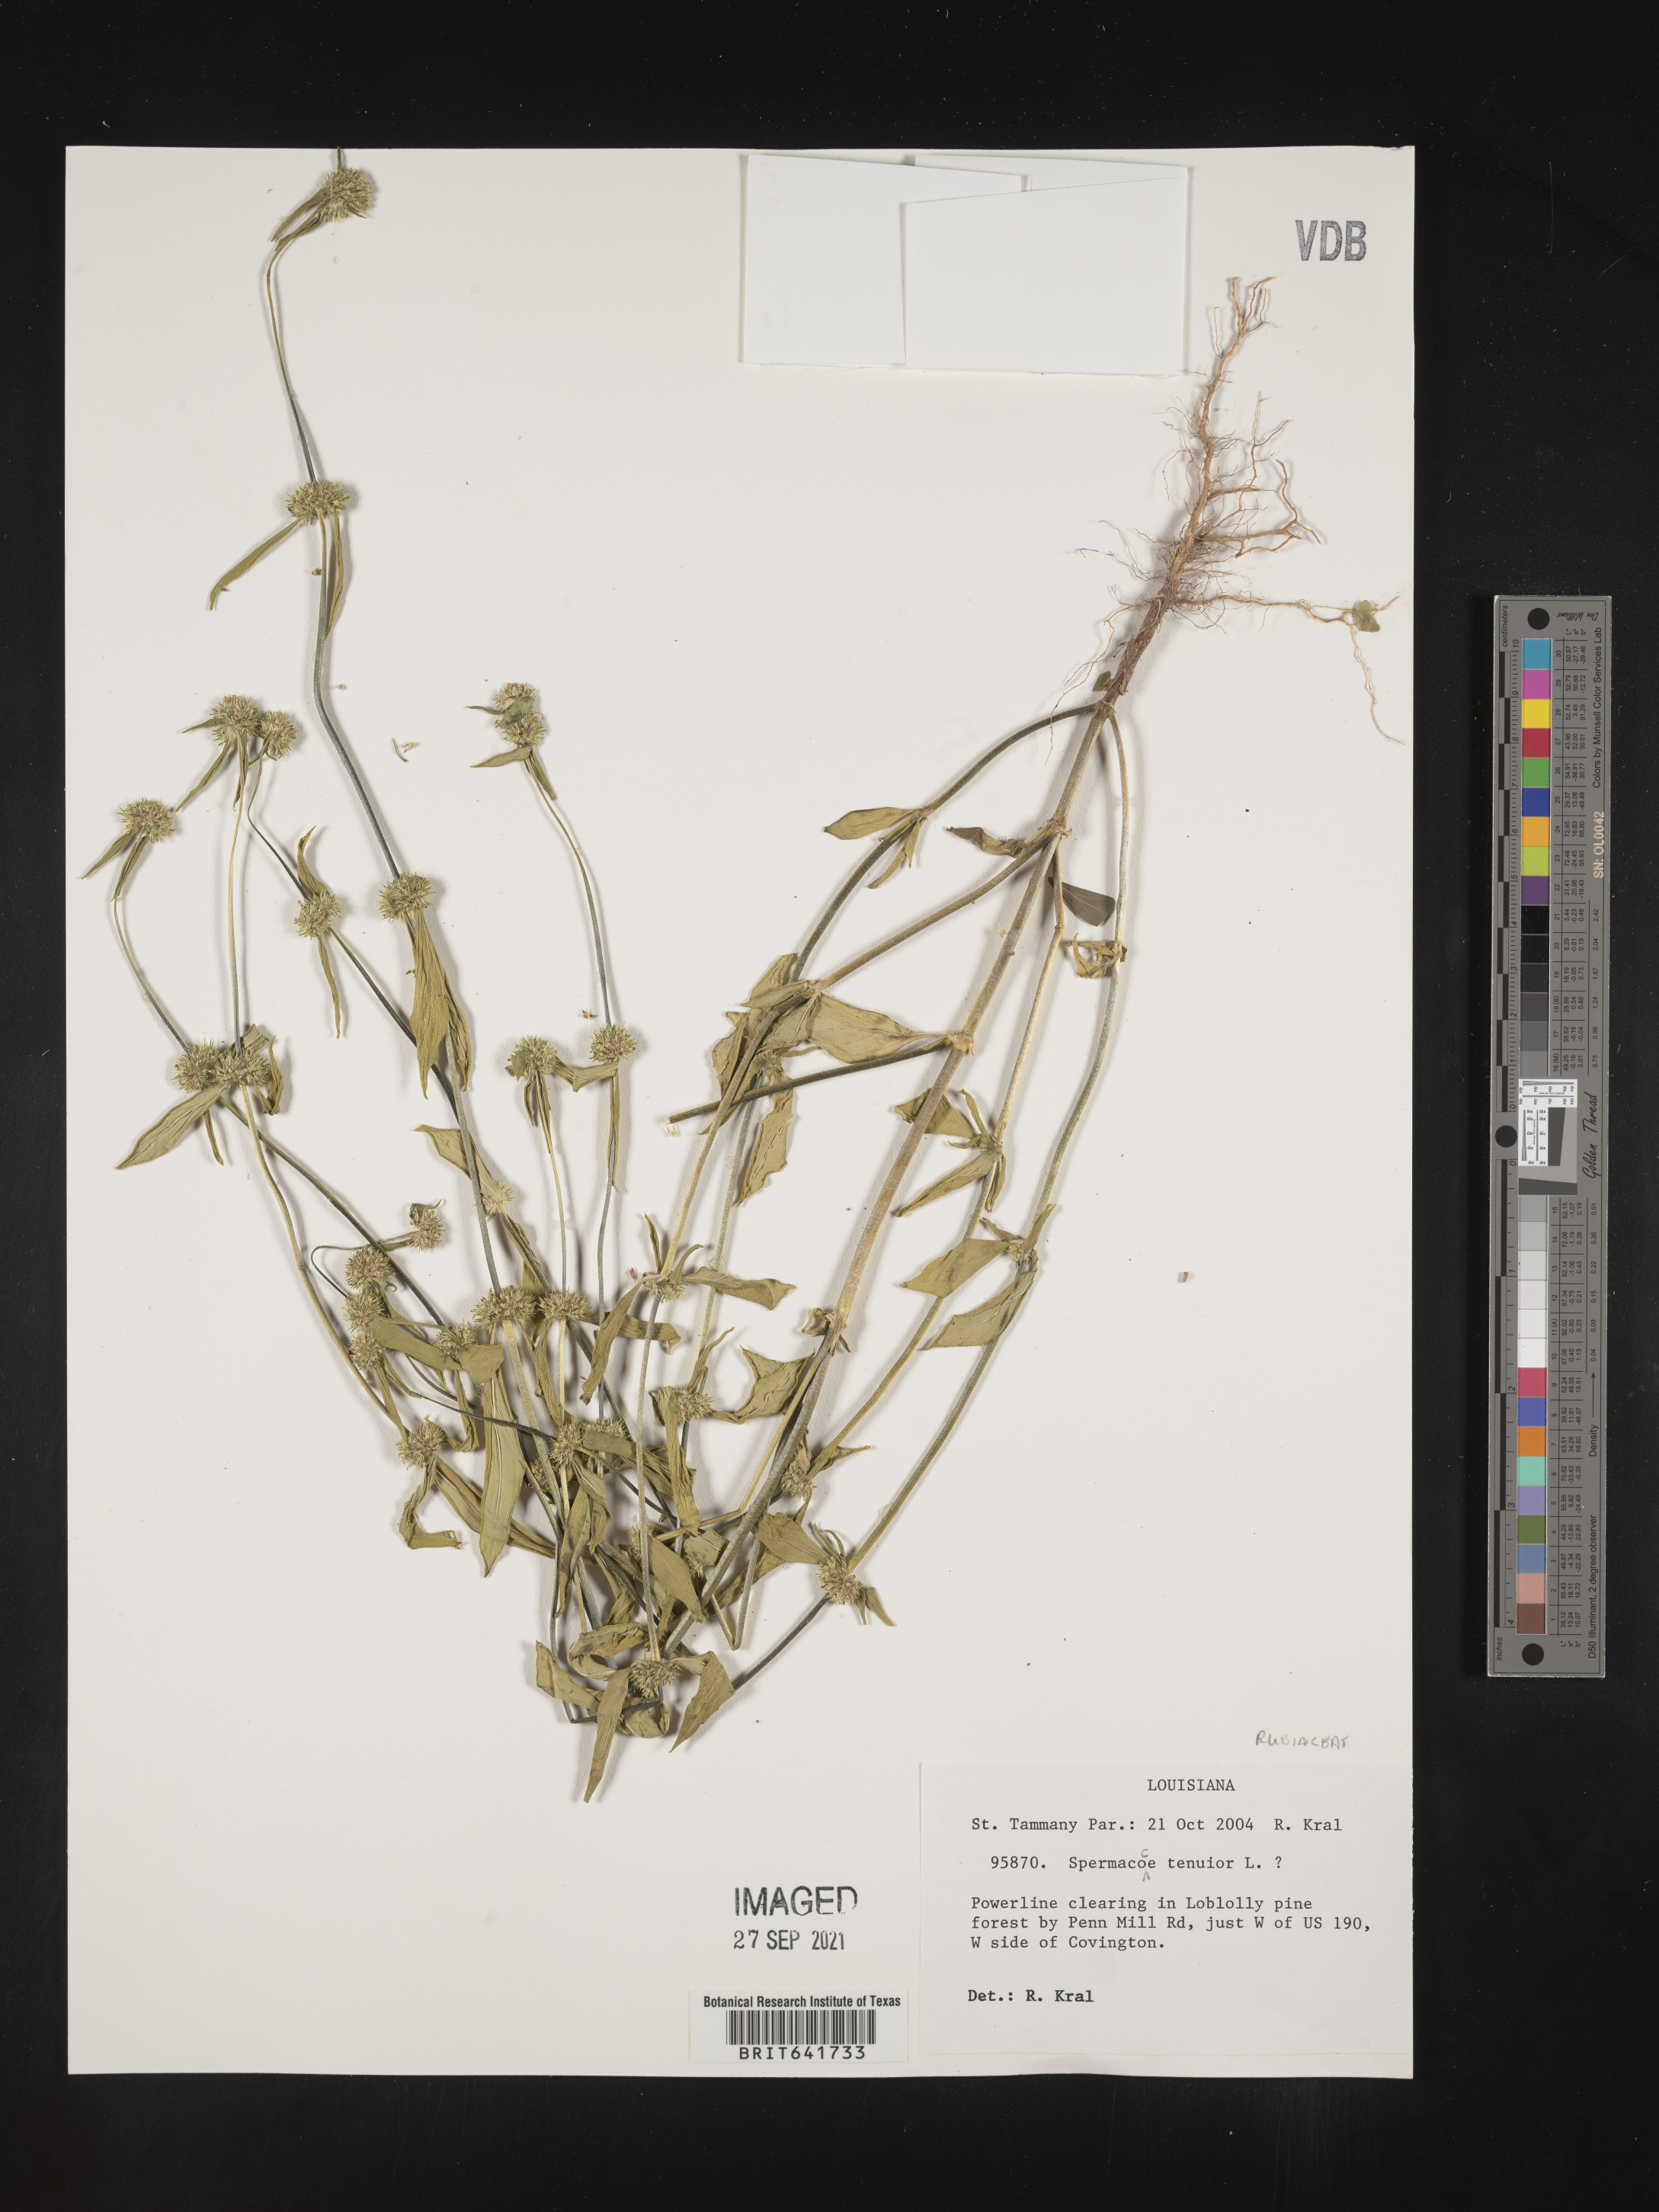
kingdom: Plantae
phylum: Tracheophyta
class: Magnoliopsida
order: Gentianales
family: Rubiaceae
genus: Spermacoce
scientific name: Spermacoce tenuior
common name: River false buttonweed
